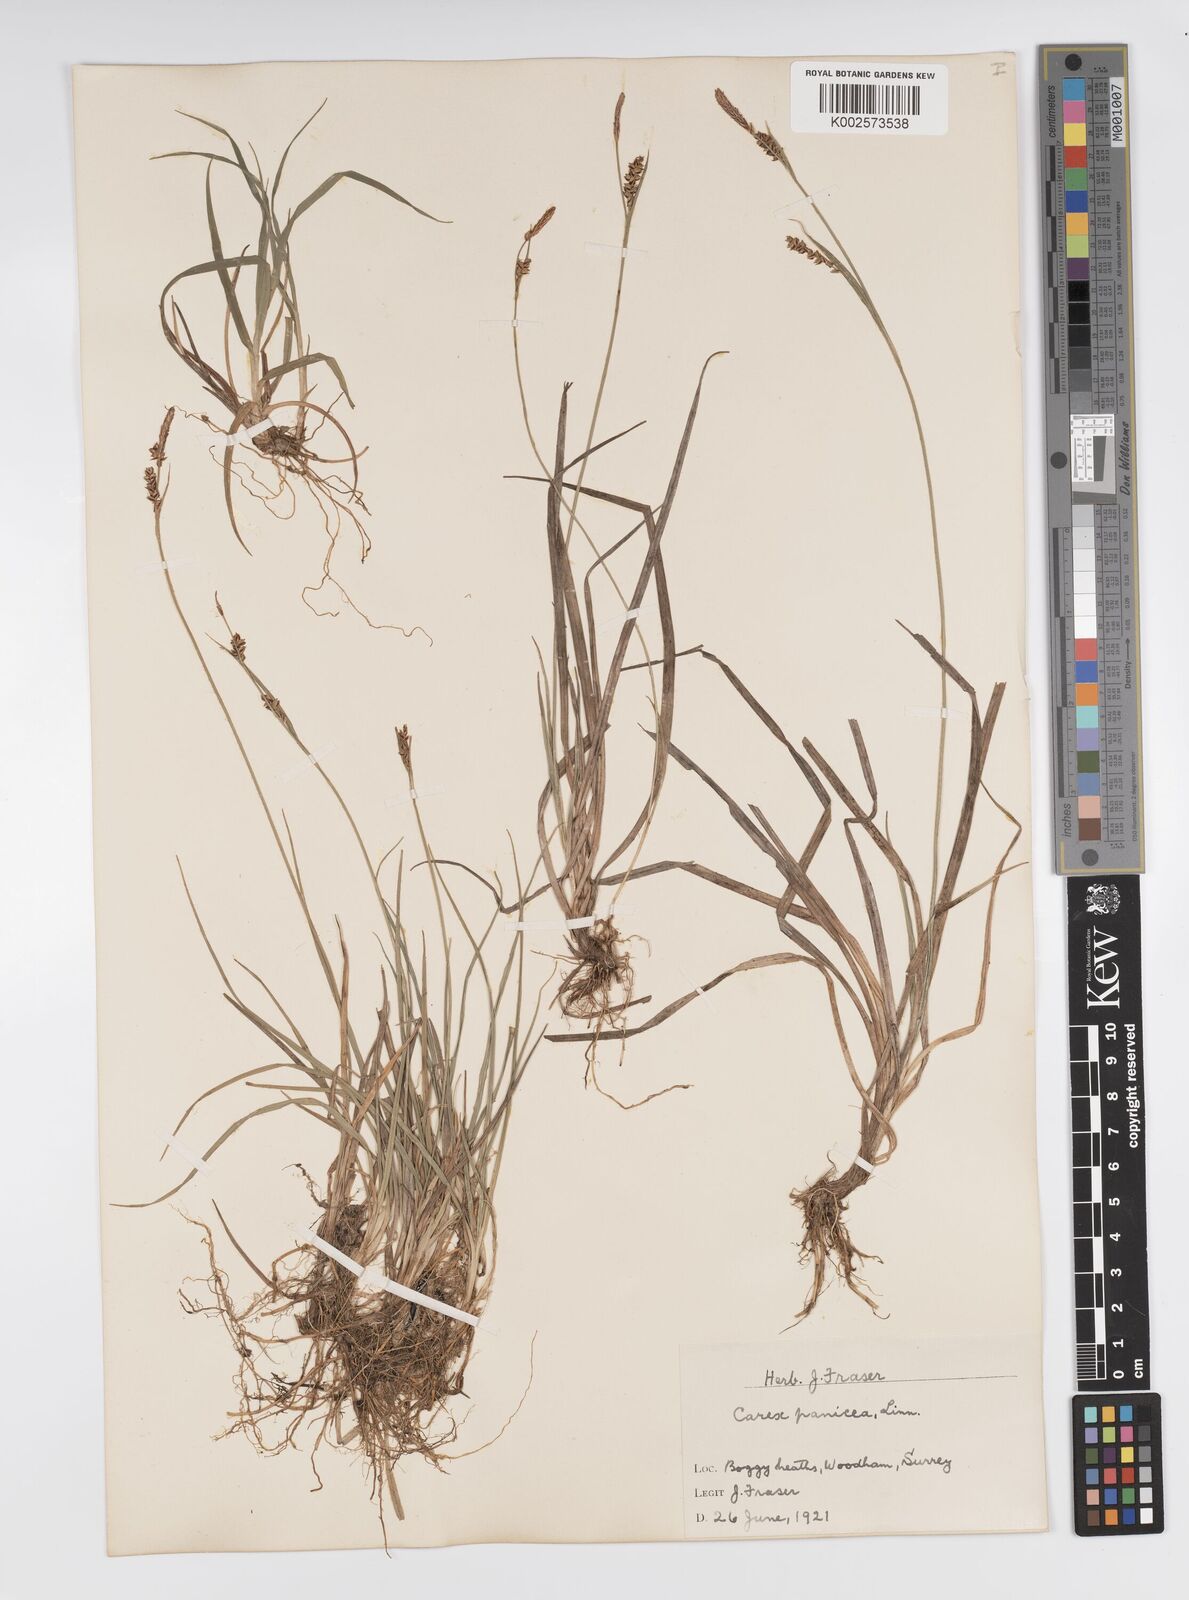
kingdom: Plantae
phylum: Tracheophyta
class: Liliopsida
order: Poales
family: Cyperaceae
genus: Carex
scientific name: Carex panicea
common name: Carnation sedge
